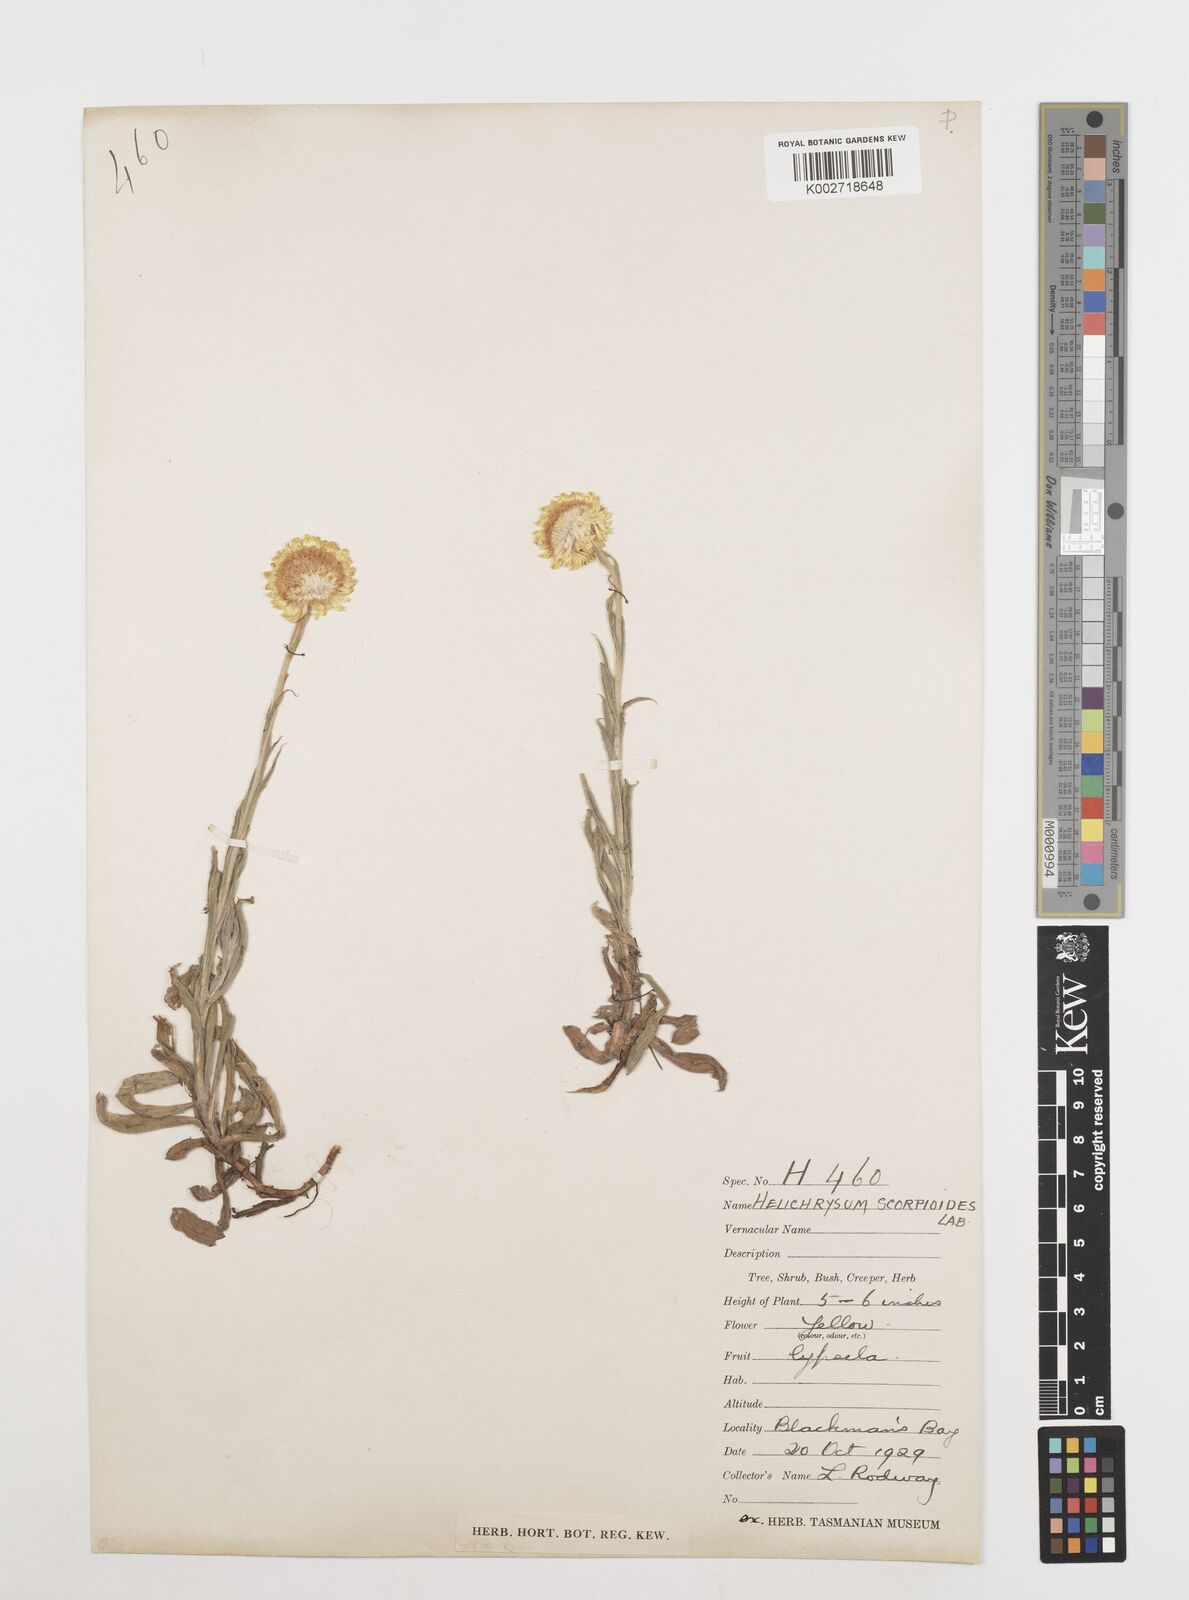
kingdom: Plantae
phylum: Tracheophyta
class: Magnoliopsida
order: Asterales
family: Asteraceae
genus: Coronidium
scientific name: Coronidium scorpioides
